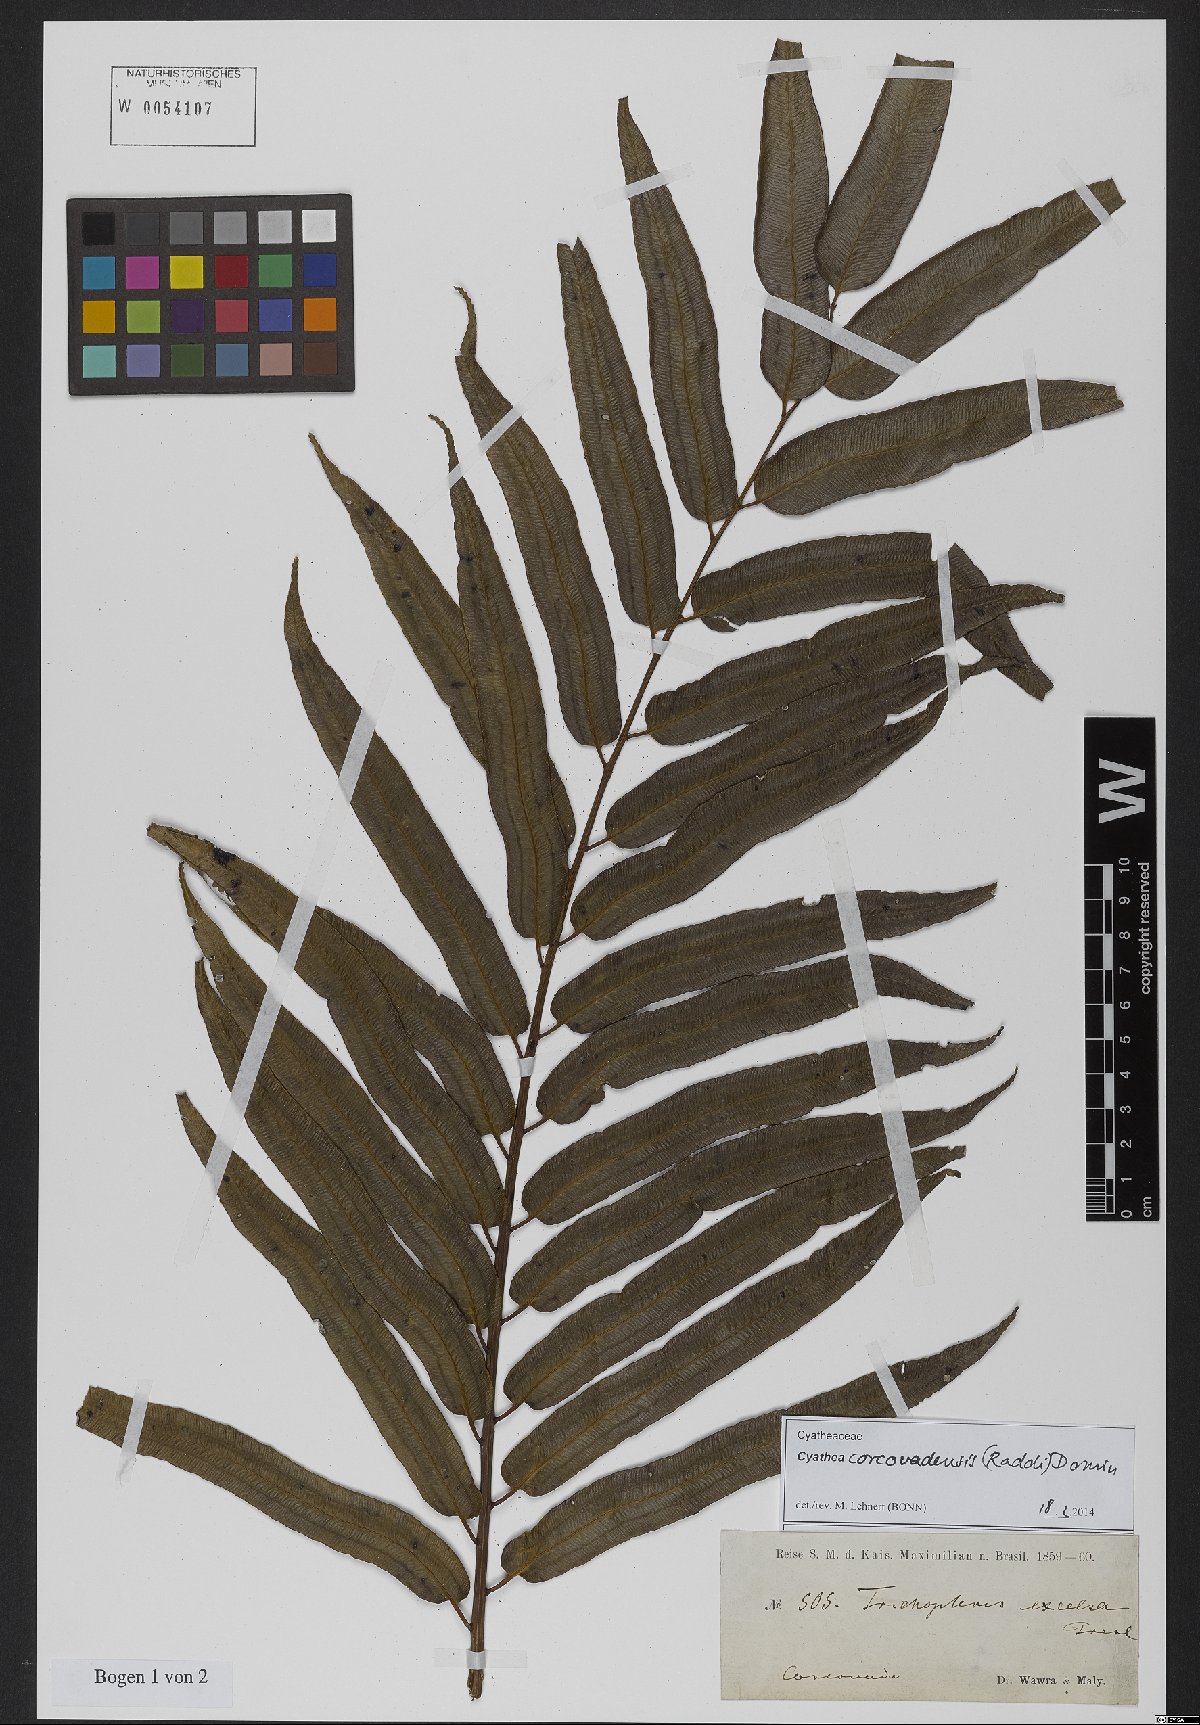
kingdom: Plantae
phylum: Tracheophyta
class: Polypodiopsida
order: Cyatheales
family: Cyatheaceae
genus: Cyathea
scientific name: Cyathea corcovadensis
